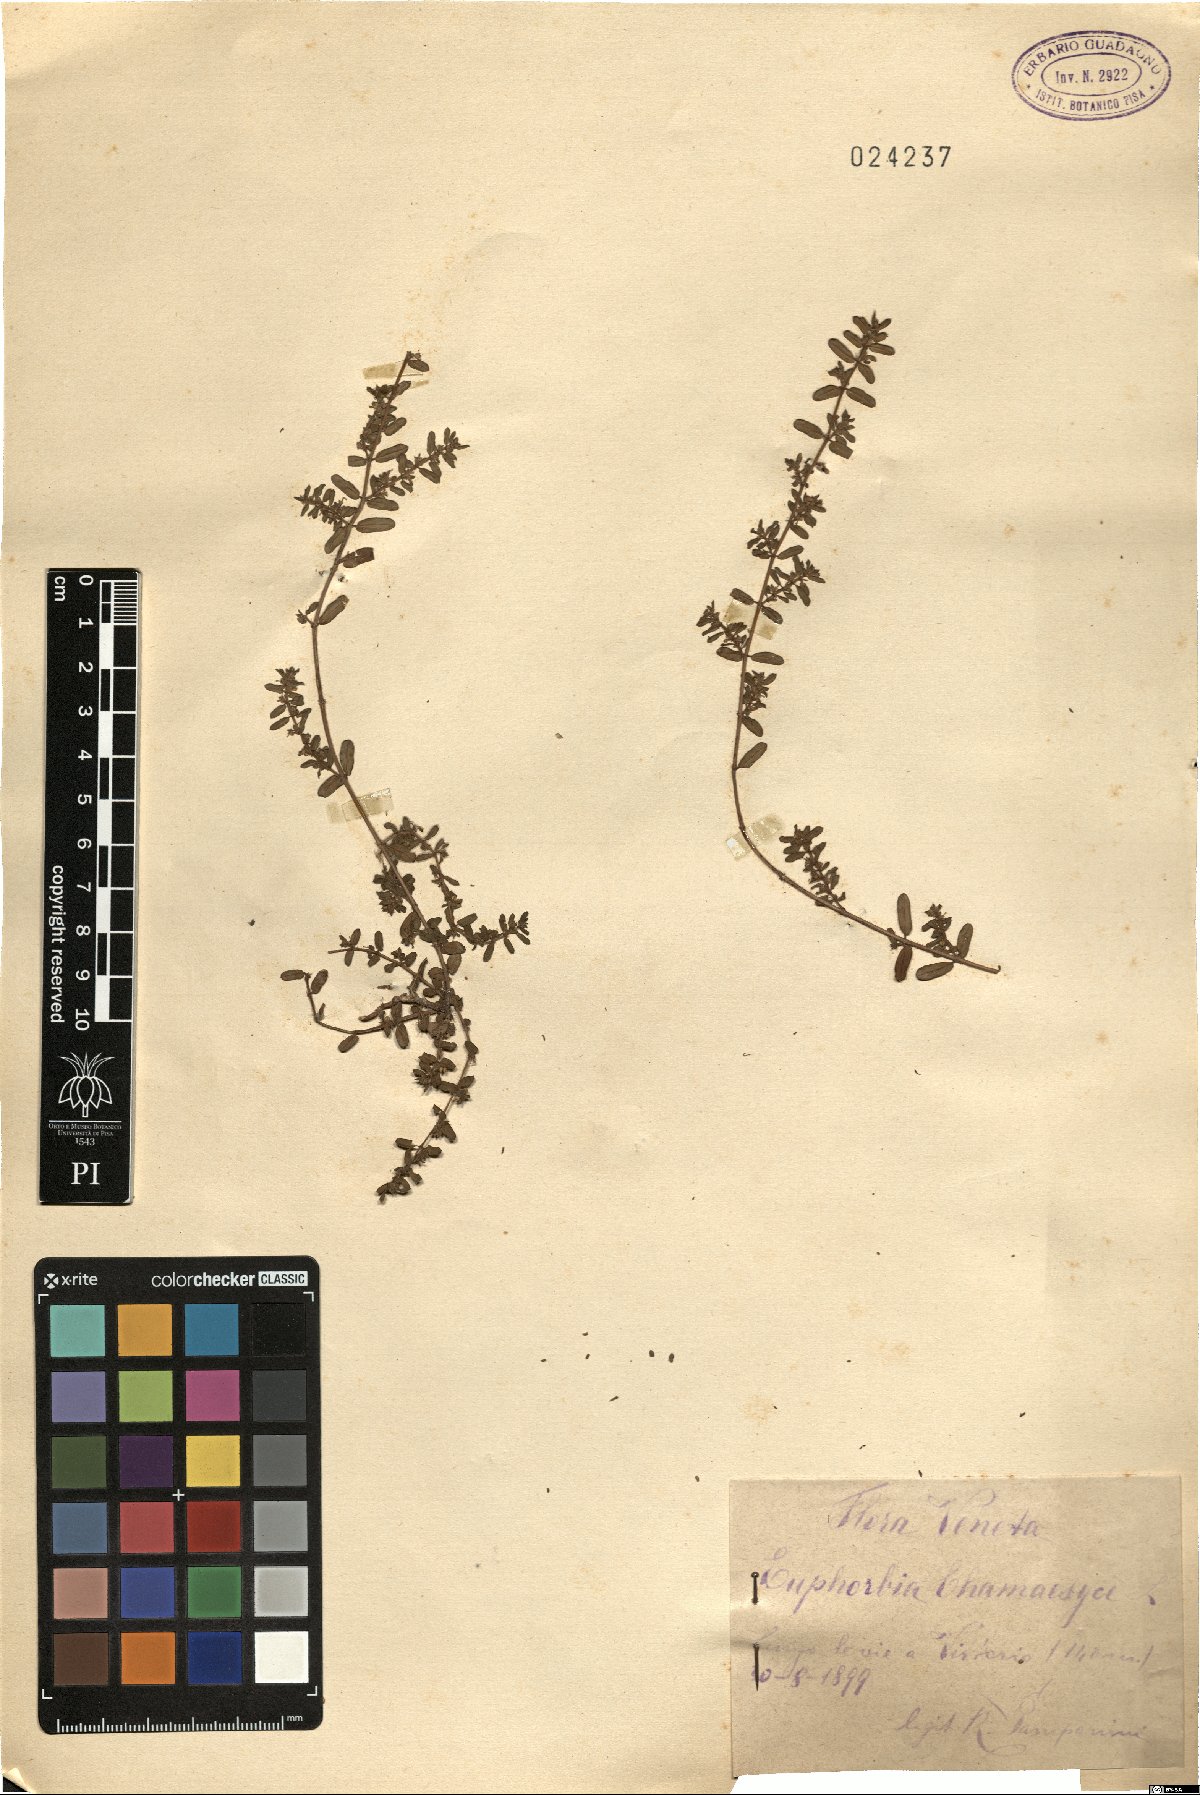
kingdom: Plantae
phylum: Tracheophyta
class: Magnoliopsida
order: Malpighiales
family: Euphorbiaceae
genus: Euphorbia
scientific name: Euphorbia chamaesyce
